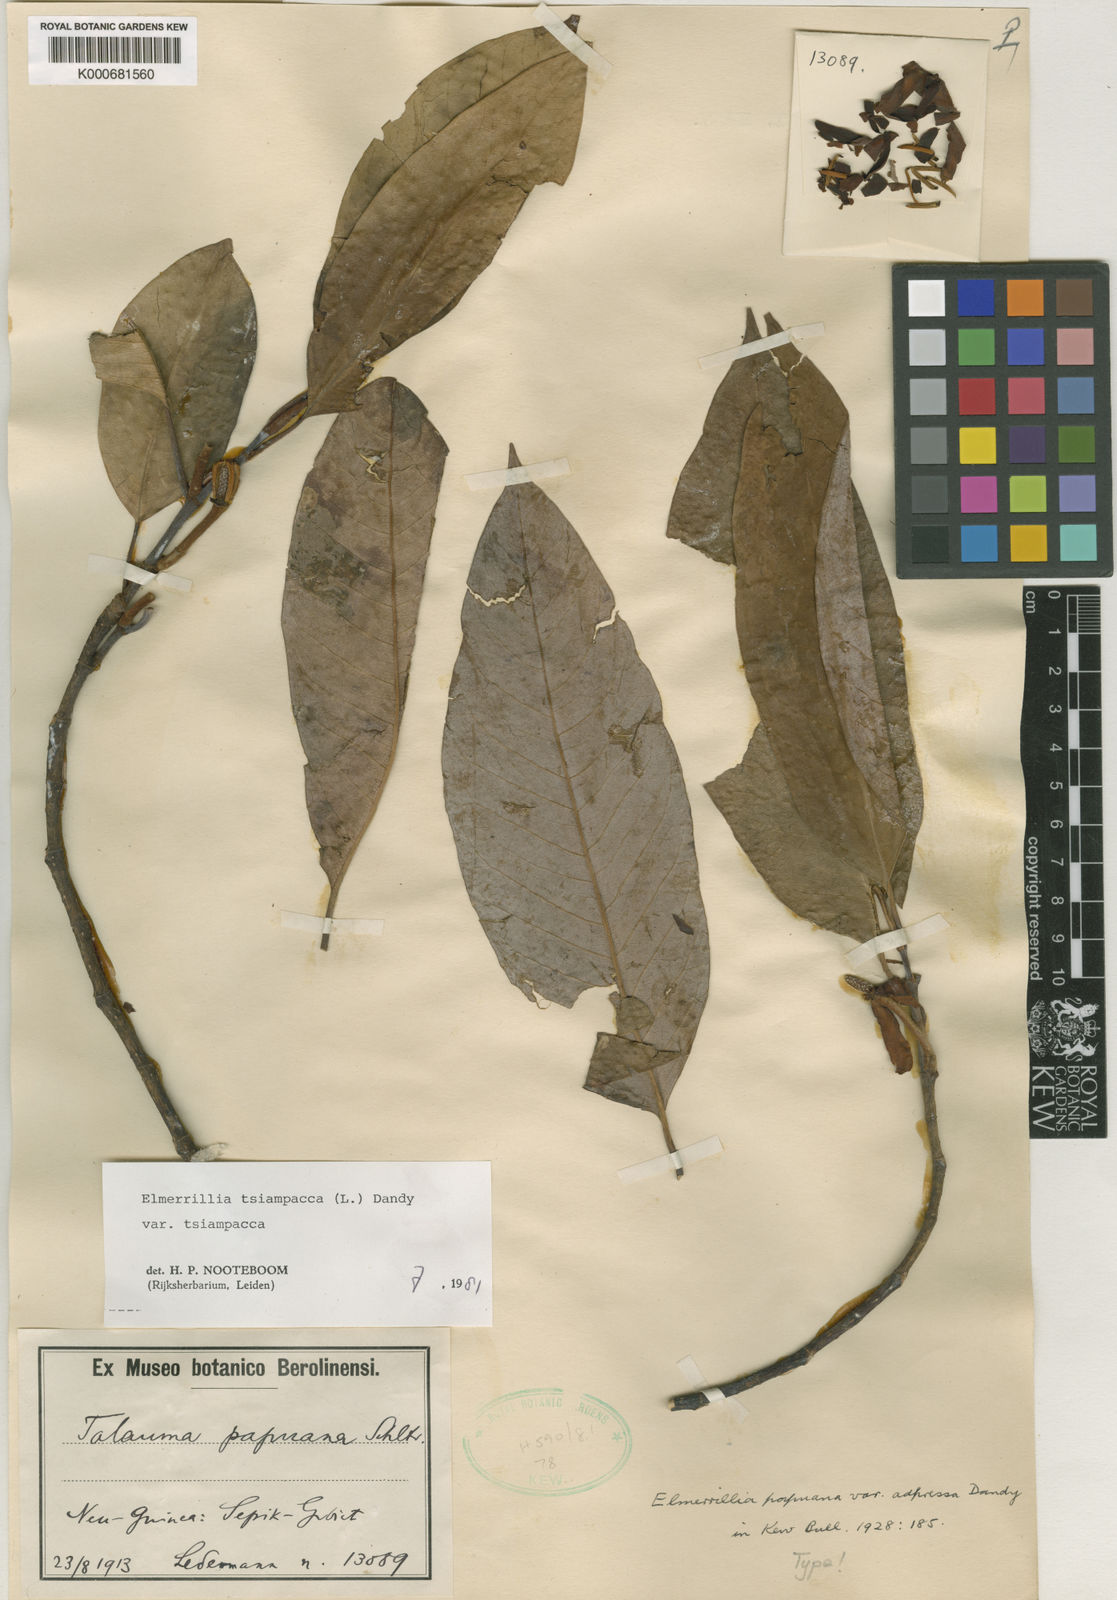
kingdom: Plantae
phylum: Tracheophyta
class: Magnoliopsida
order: Magnoliales
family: Magnoliaceae
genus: Magnolia
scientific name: Magnolia tsiampacca
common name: Wau-beech
